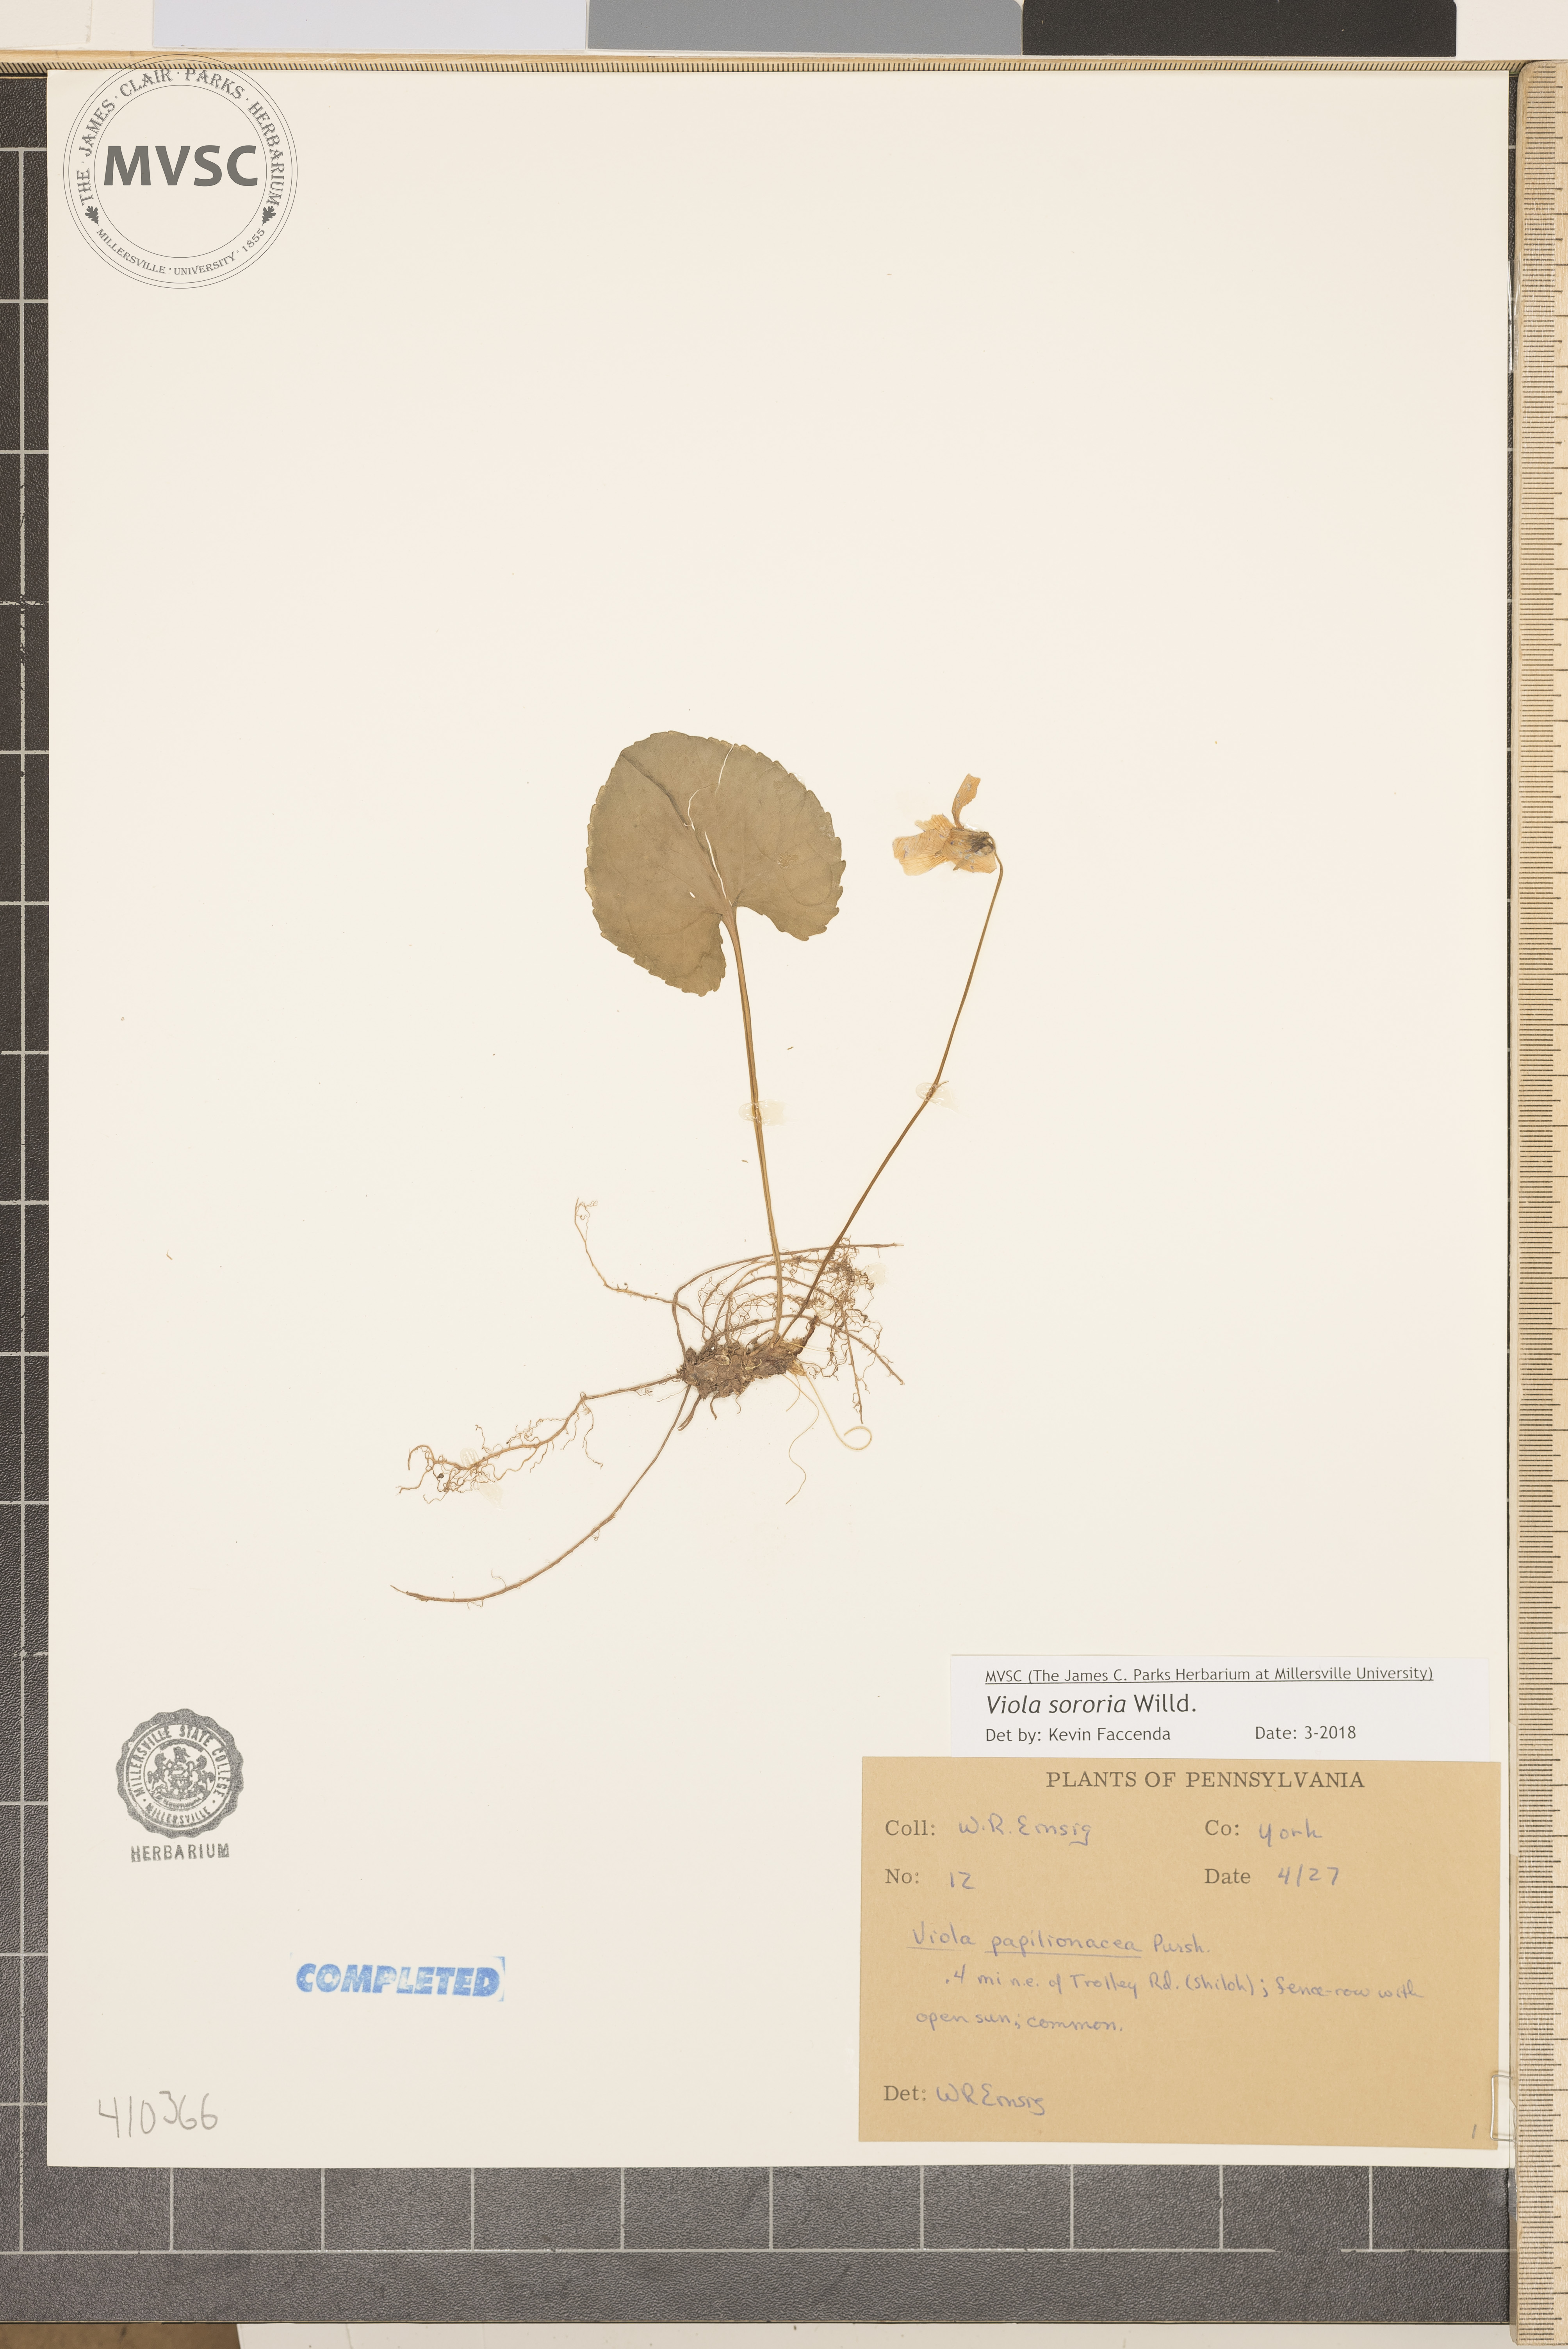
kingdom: Plantae
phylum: Tracheophyta
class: Magnoliopsida
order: Malpighiales
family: Violaceae
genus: Viola
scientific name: Viola sororia
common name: Dooryard violet
